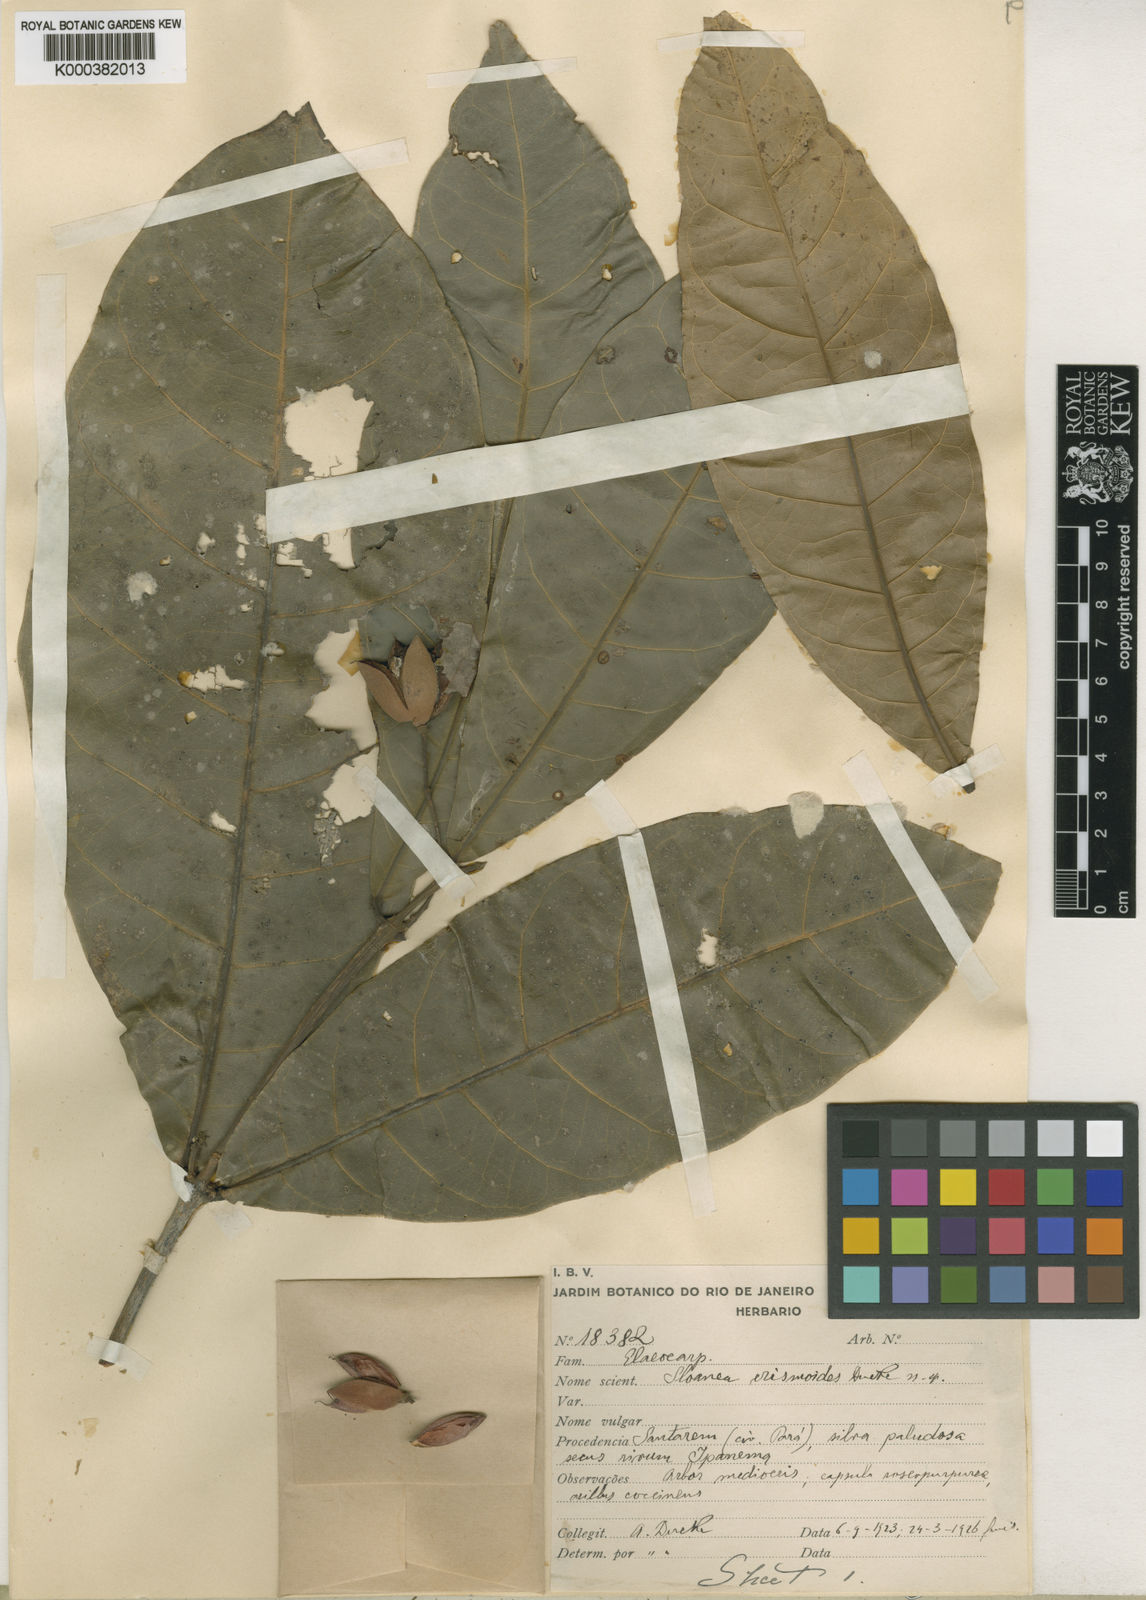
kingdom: Plantae
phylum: Tracheophyta
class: Magnoliopsida
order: Oxalidales
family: Elaeocarpaceae
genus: Sloanea
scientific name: Sloanea erismoides
